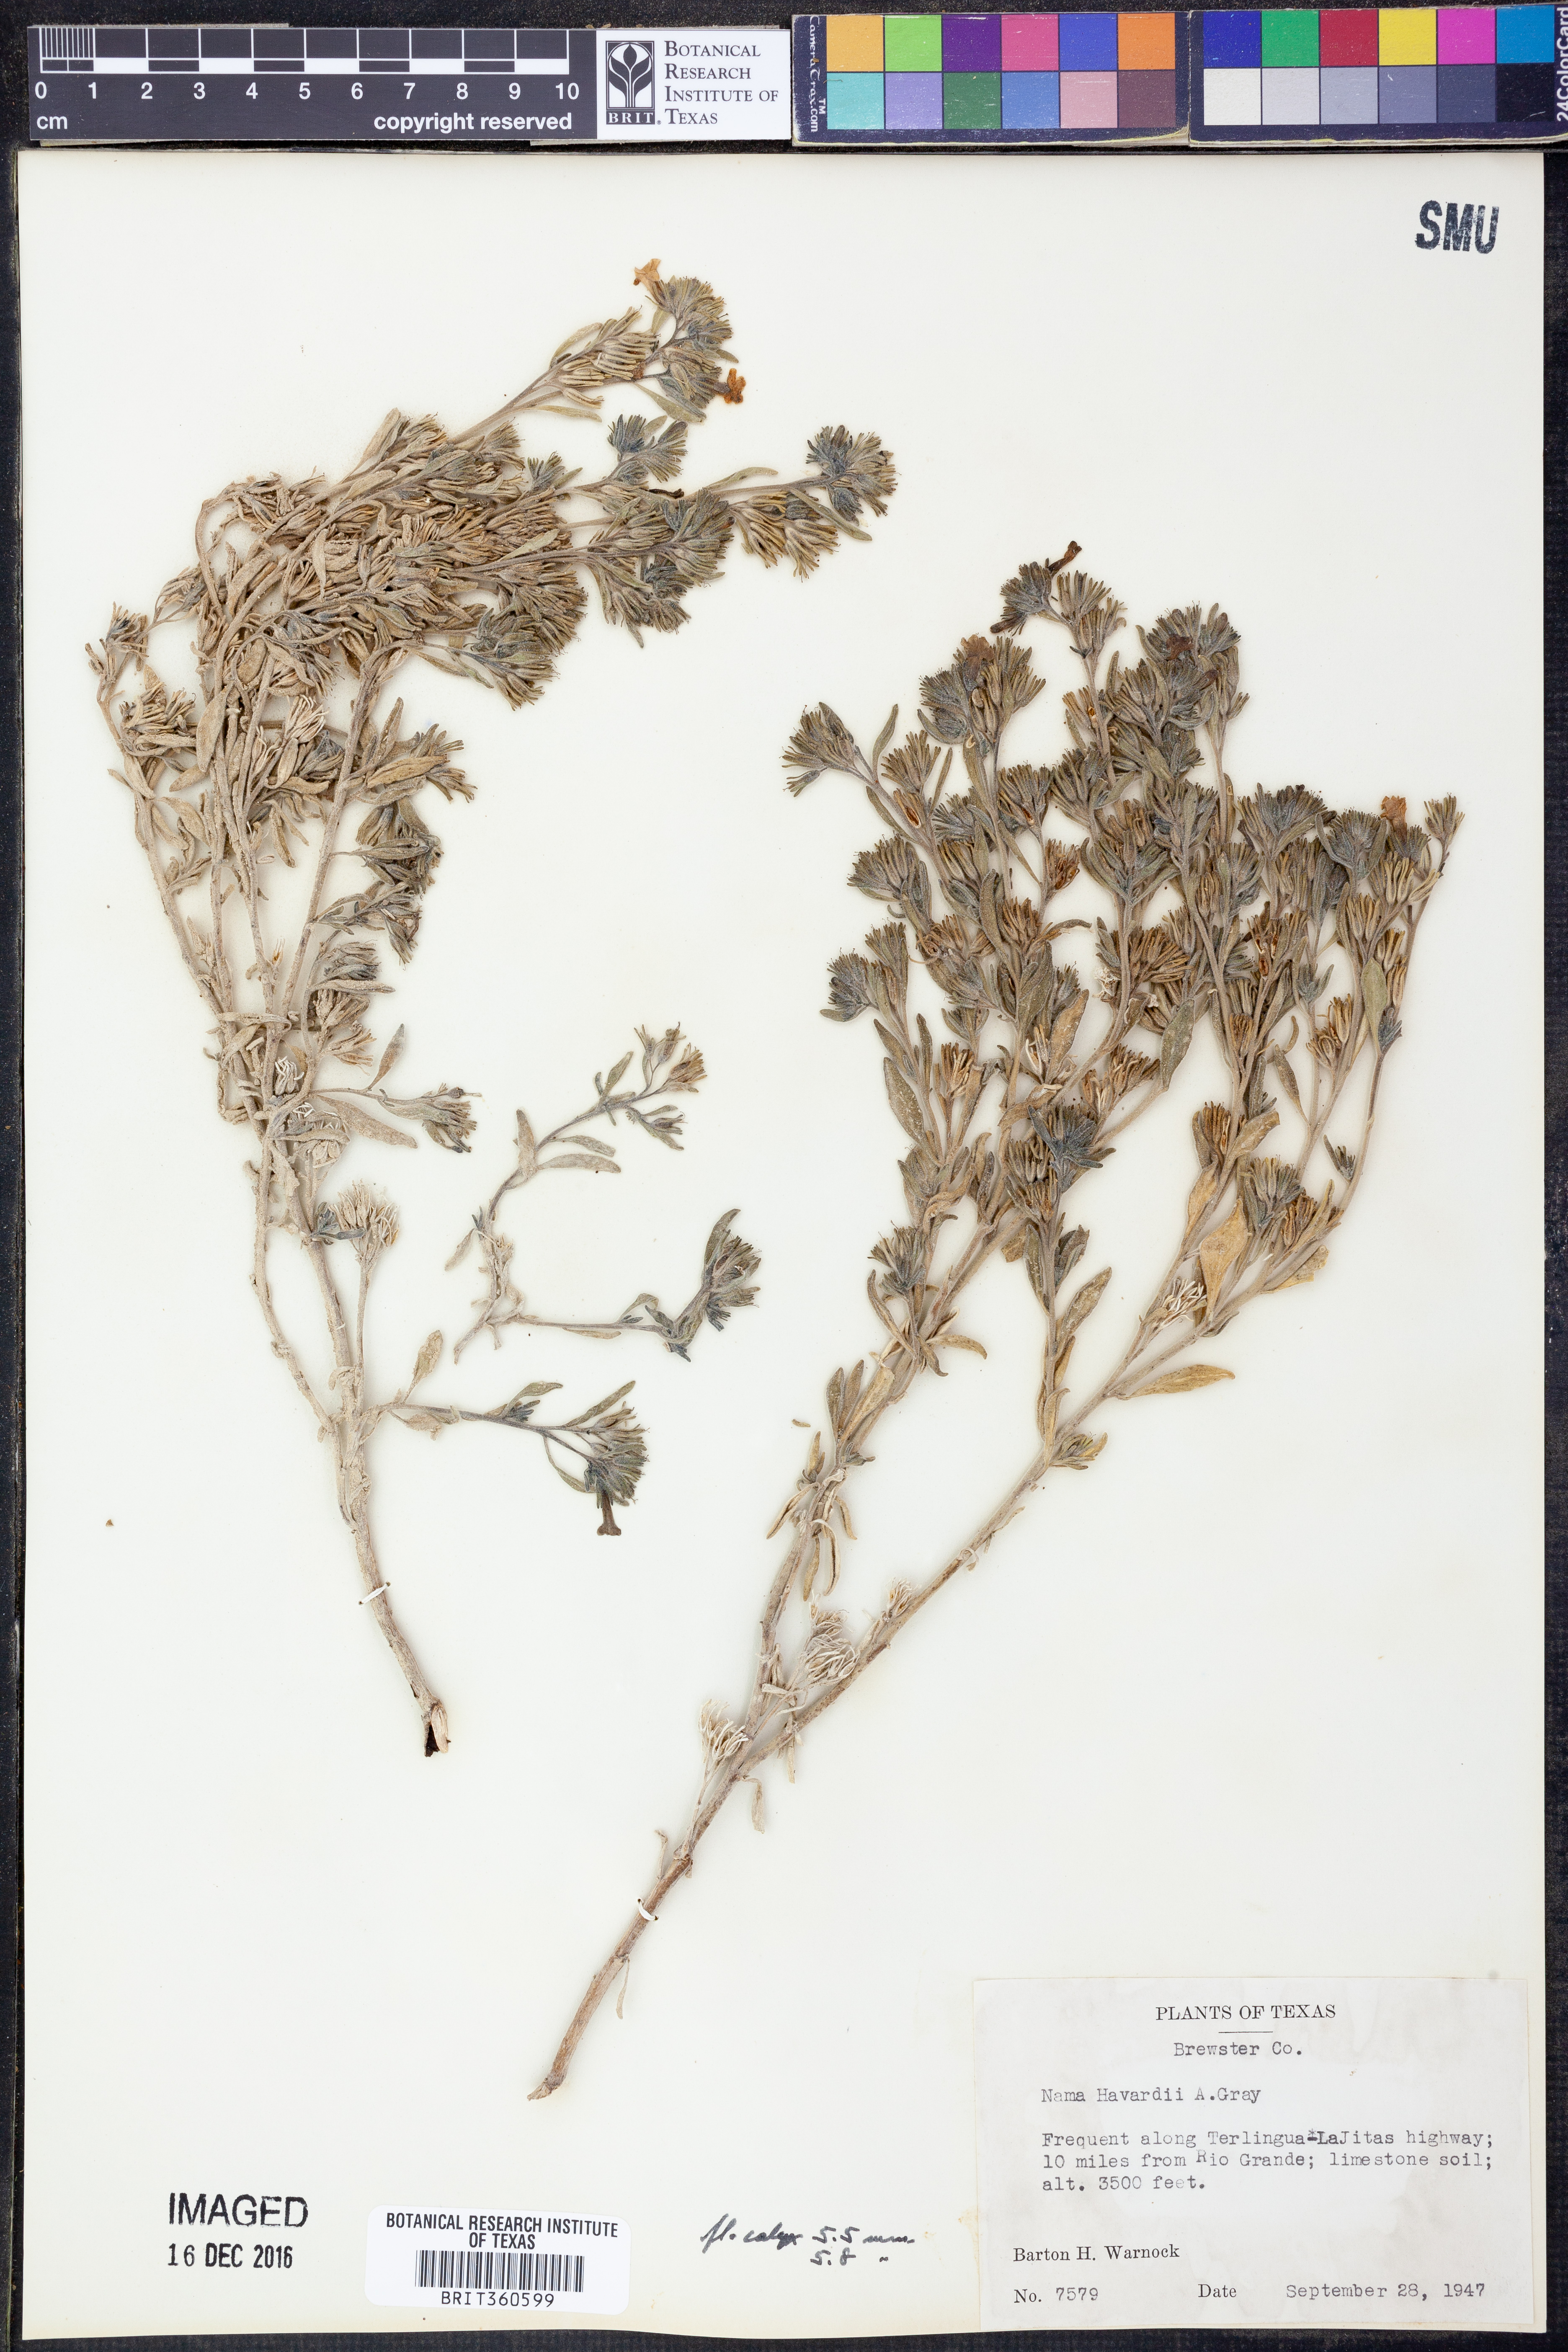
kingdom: Plantae
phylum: Tracheophyta
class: Magnoliopsida
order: Boraginales
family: Namaceae
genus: Nama
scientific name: Nama havardii
